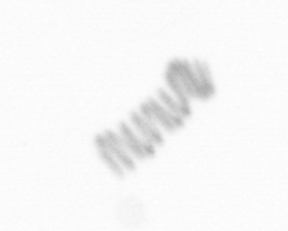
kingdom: Chromista
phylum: Ochrophyta
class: Bacillariophyceae
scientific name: Bacillariophyceae
